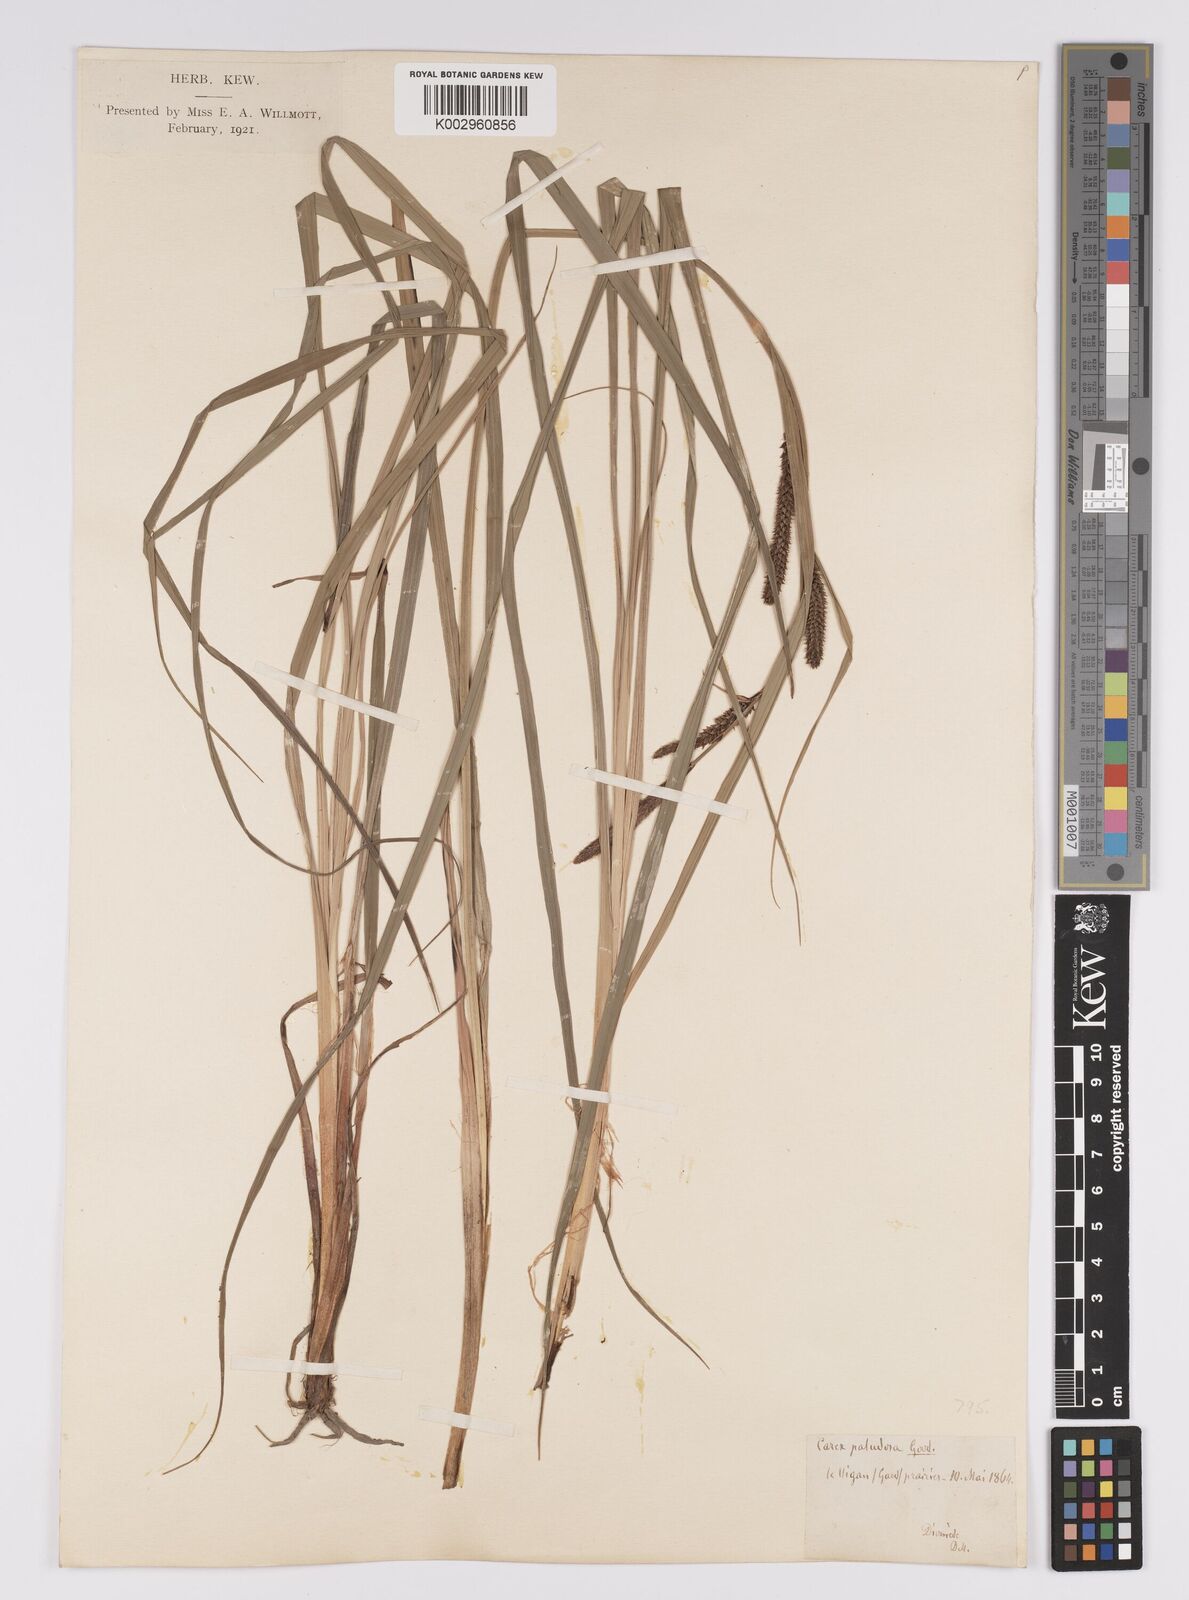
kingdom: Plantae
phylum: Tracheophyta
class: Liliopsida
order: Poales
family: Cyperaceae
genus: Carex
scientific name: Carex acutiformis
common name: Lesser pond-sedge
